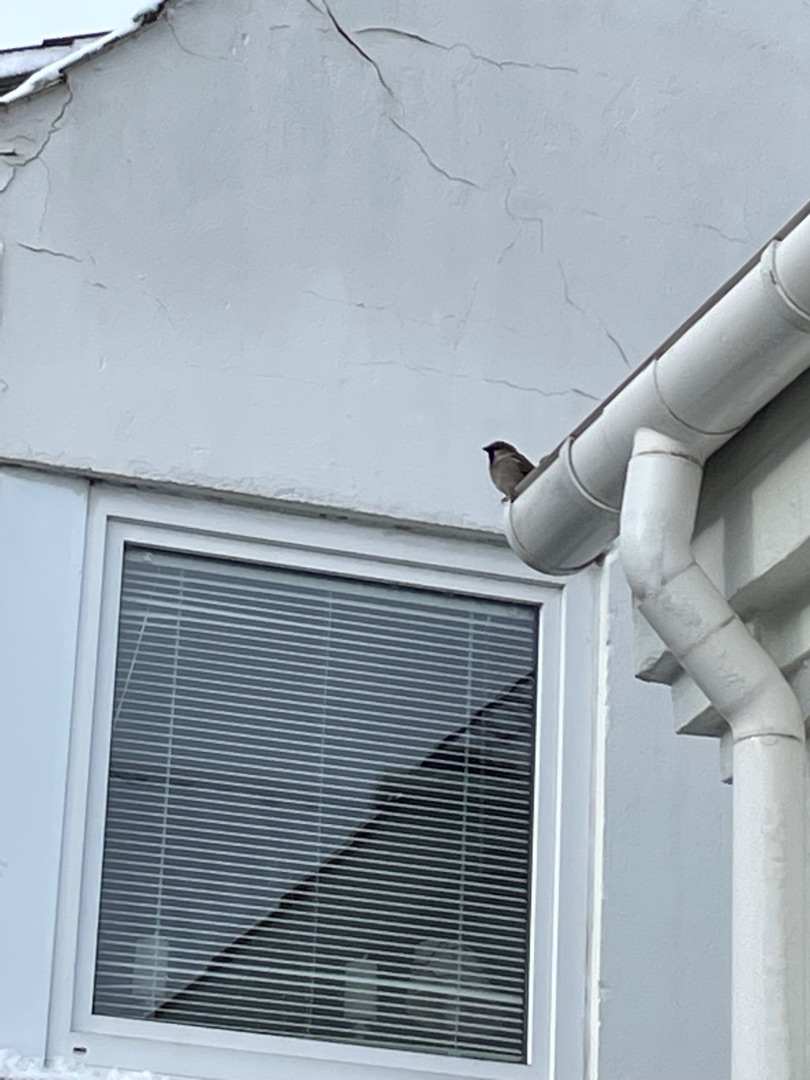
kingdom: Animalia
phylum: Chordata
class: Aves
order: Passeriformes
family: Passeridae
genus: Passer
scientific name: Passer domesticus
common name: Gråspurv
